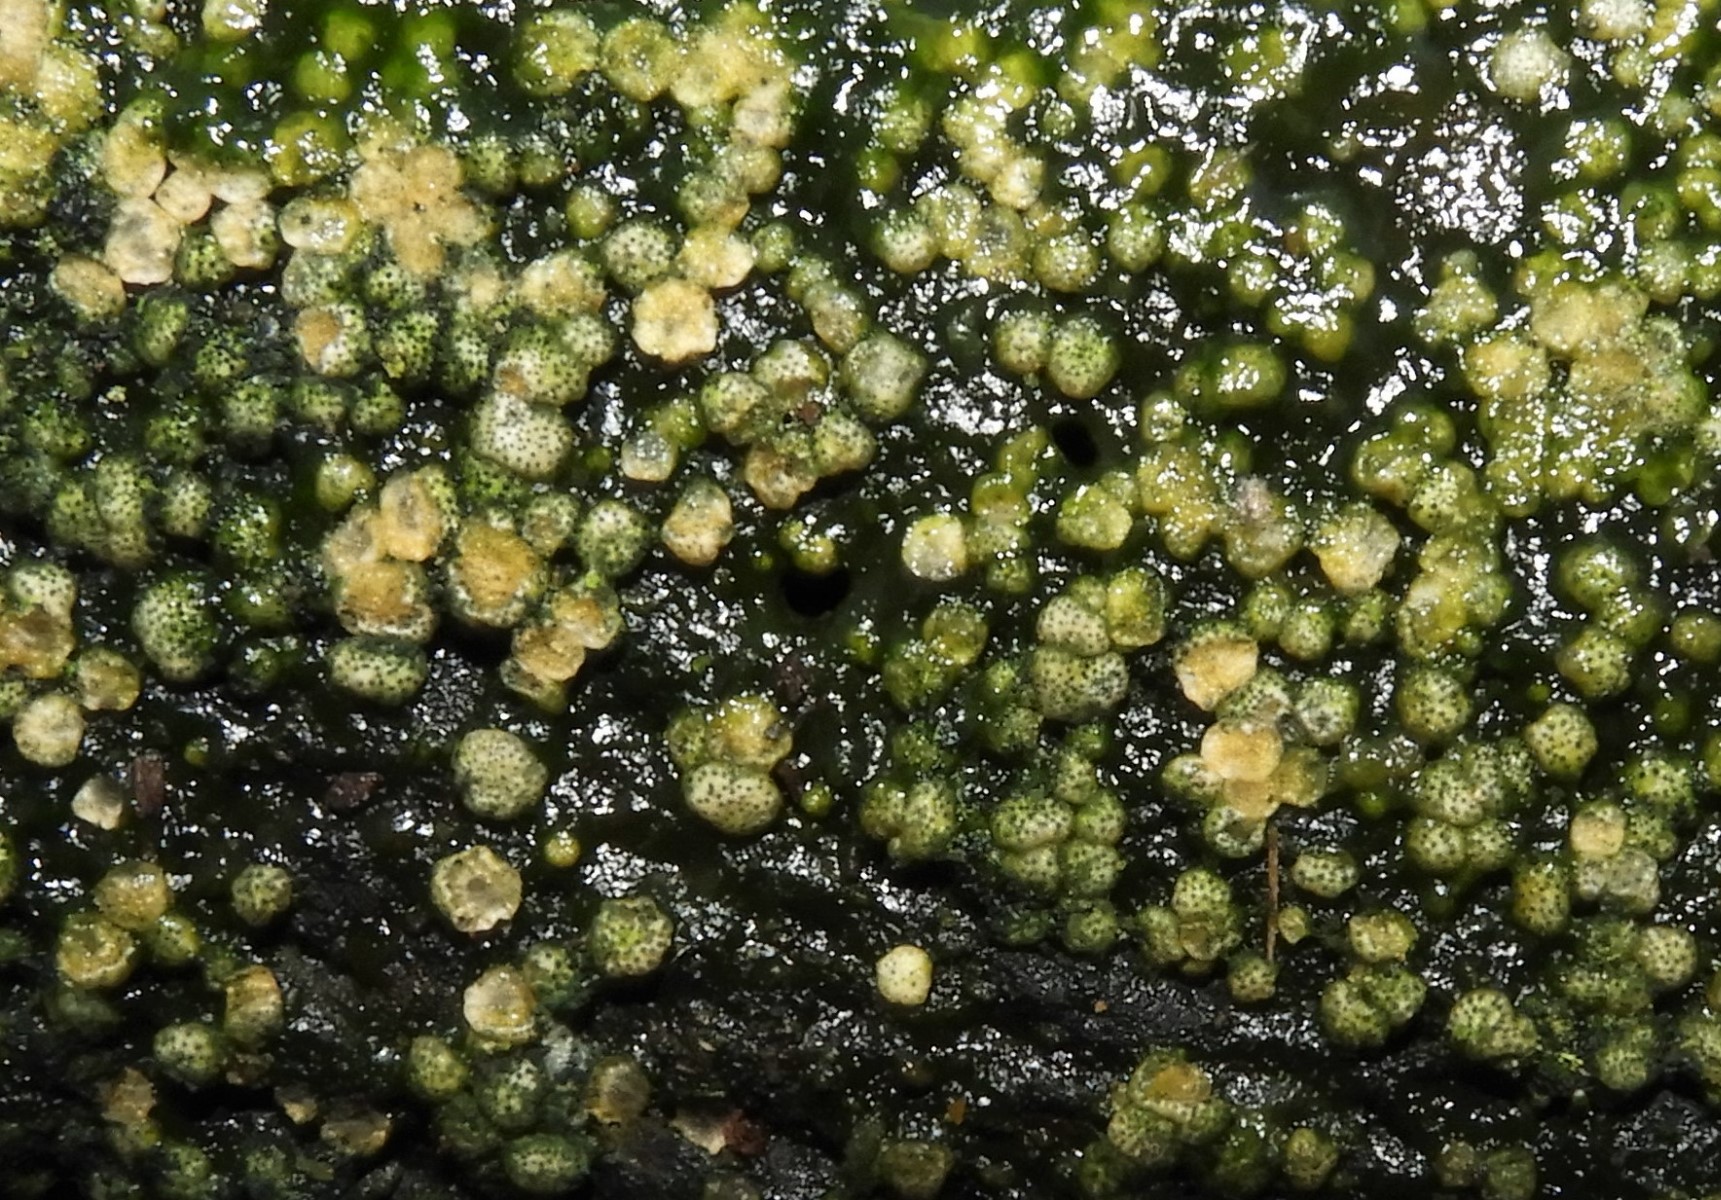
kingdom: Fungi
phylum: Ascomycota
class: Sordariomycetes
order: Hypocreales
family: Hypocreaceae
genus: Trichoderma
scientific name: Trichoderma strictipile
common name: grønprikket kødkerne
